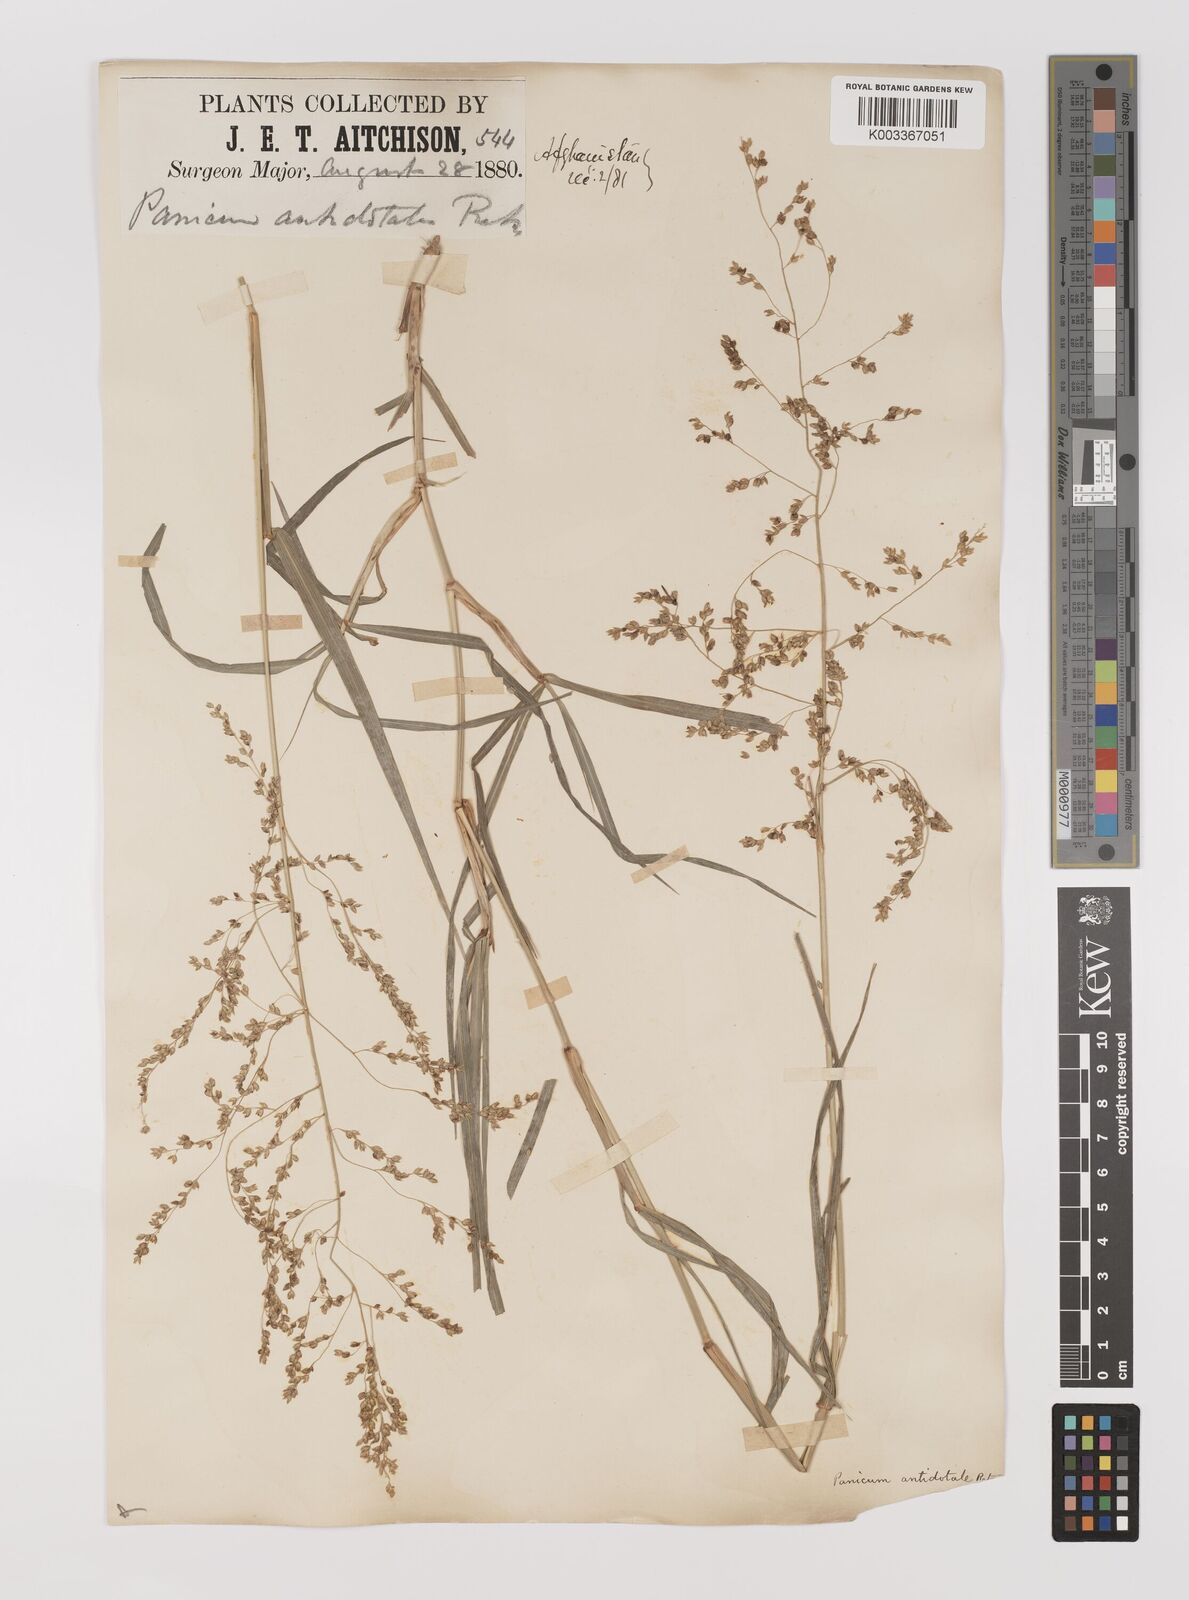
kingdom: Plantae
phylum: Tracheophyta
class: Liliopsida
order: Poales
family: Poaceae
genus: Panicum
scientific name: Panicum antidotale
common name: Blue panicum
